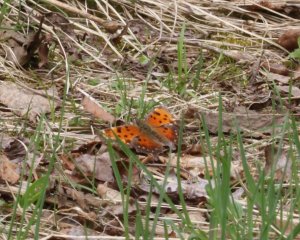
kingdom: Animalia
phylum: Arthropoda
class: Insecta
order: Lepidoptera
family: Nymphalidae
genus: Polygonia
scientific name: Polygonia progne
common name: Gray Comma
